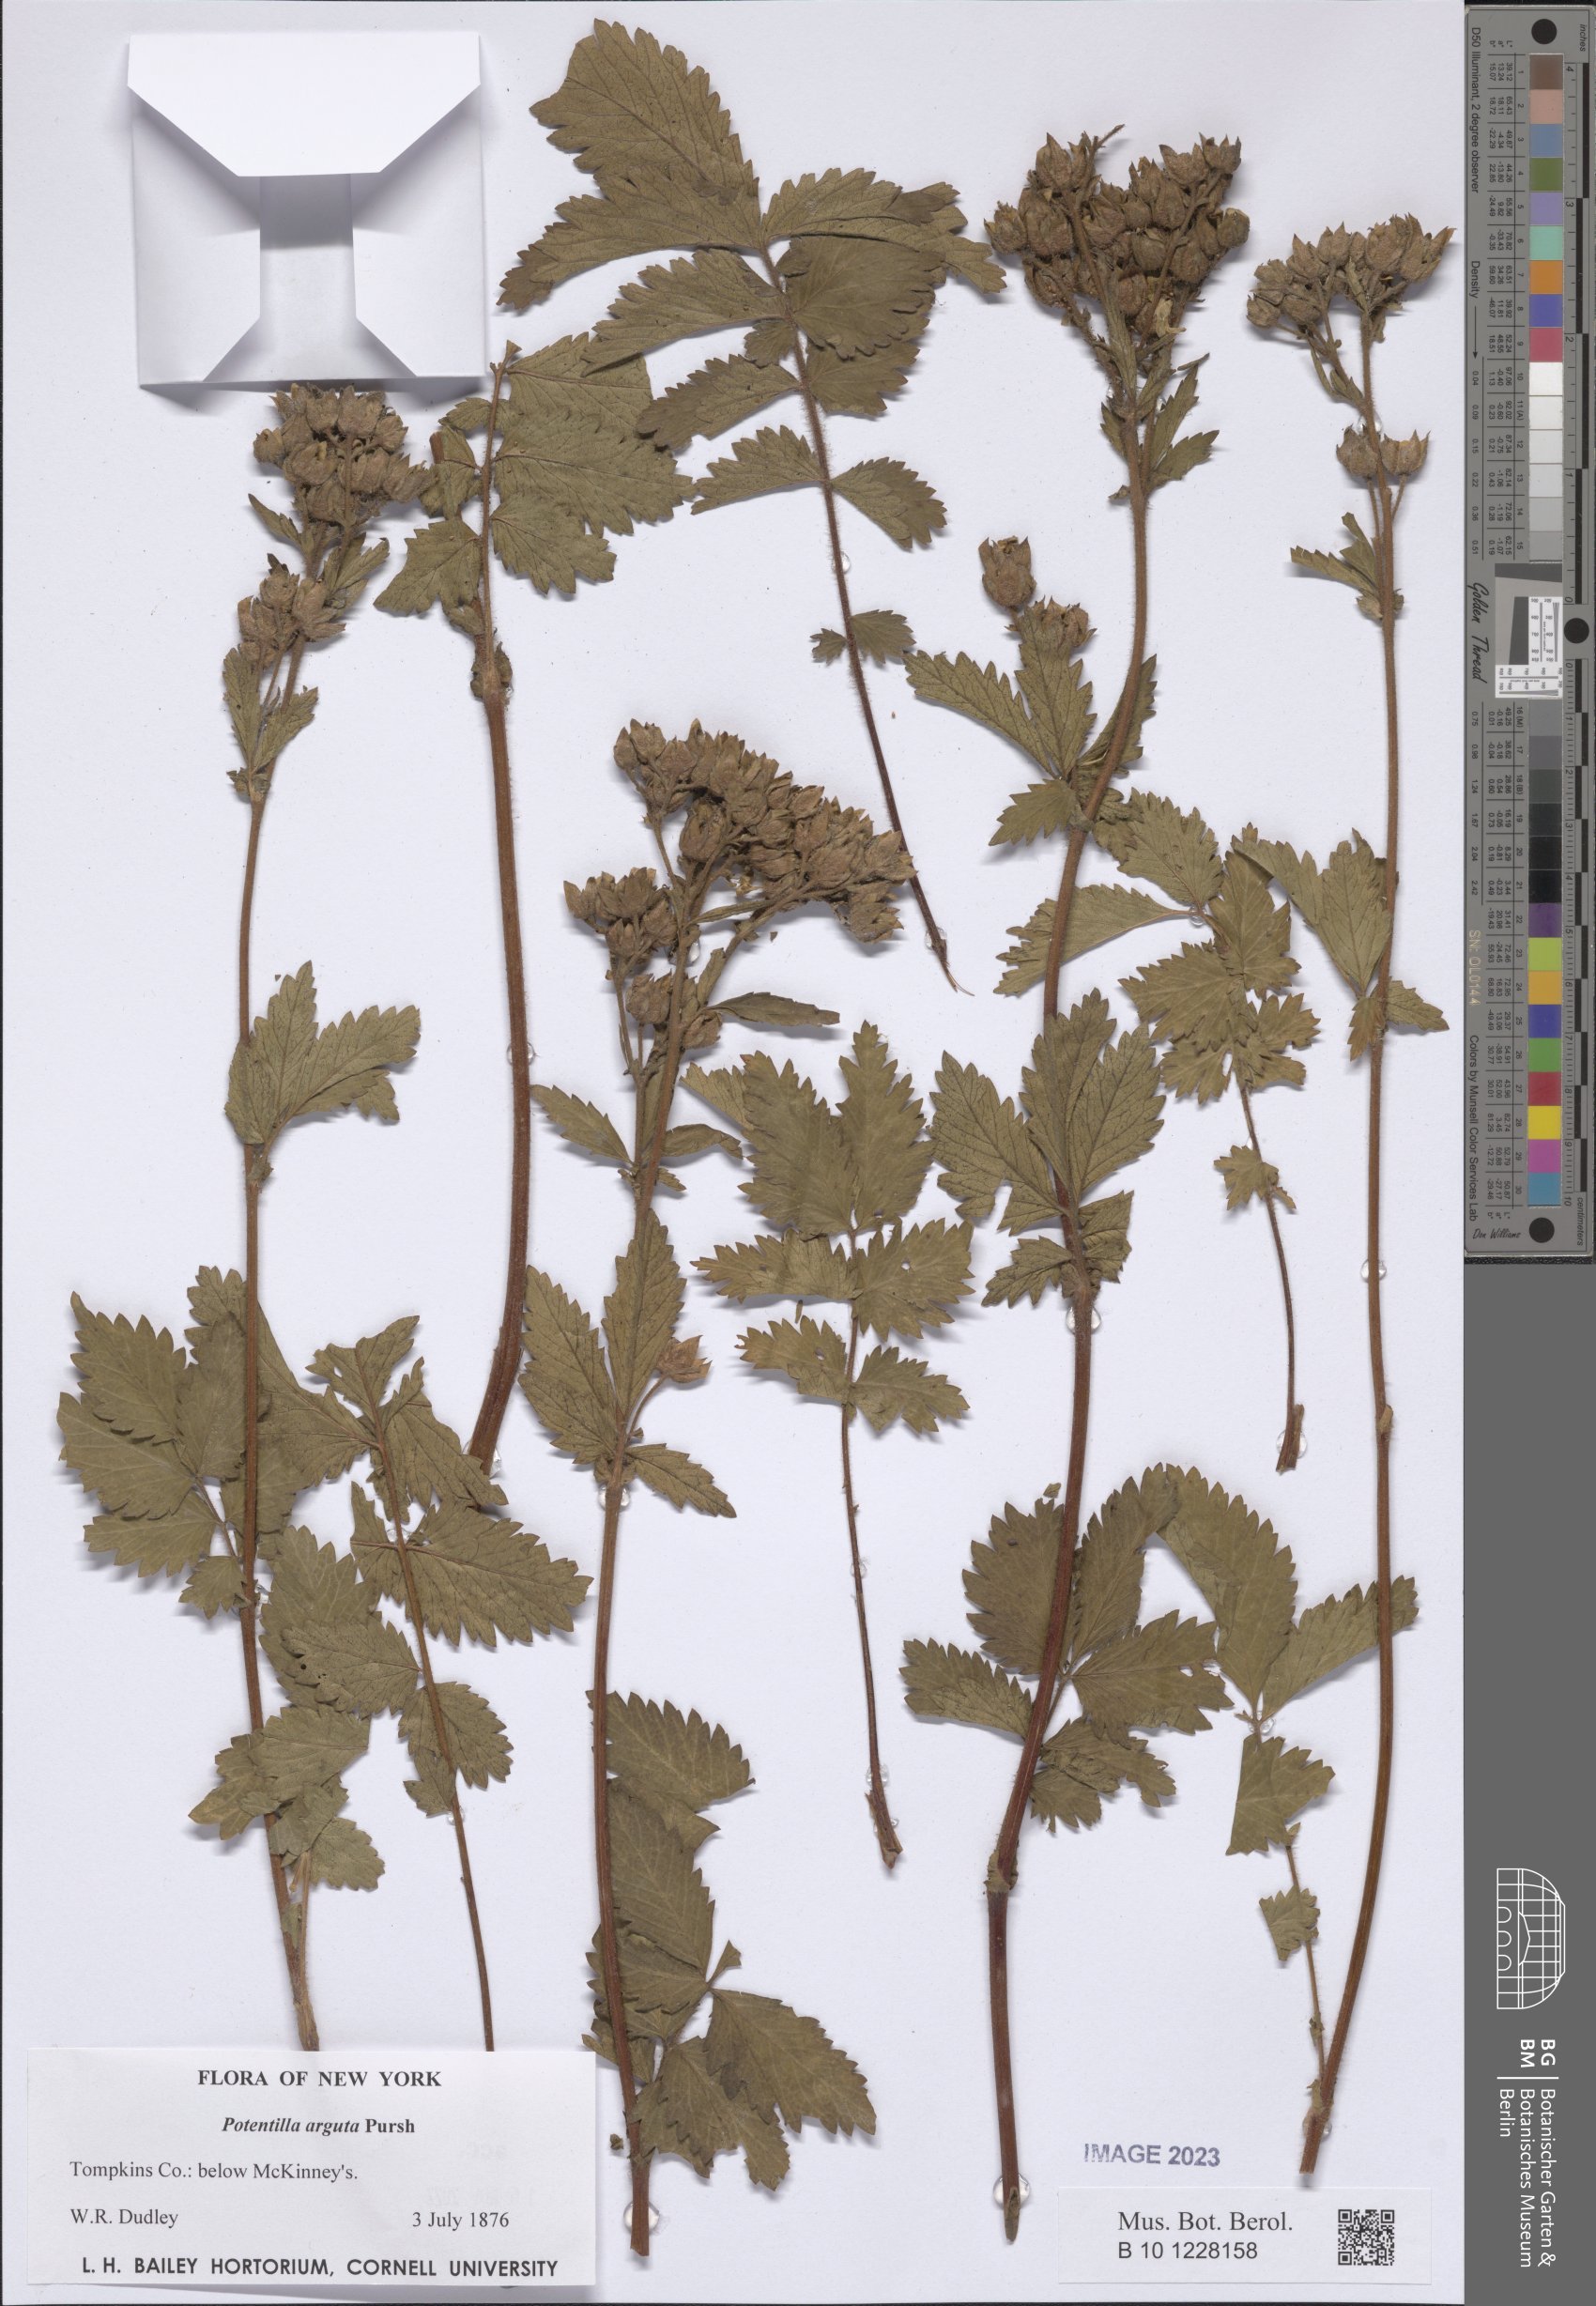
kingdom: Plantae
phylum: Tracheophyta
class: Magnoliopsida
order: Rosales
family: Rosaceae
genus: Drymocallis
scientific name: Drymocallis arguta
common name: Tall cinquefoil
